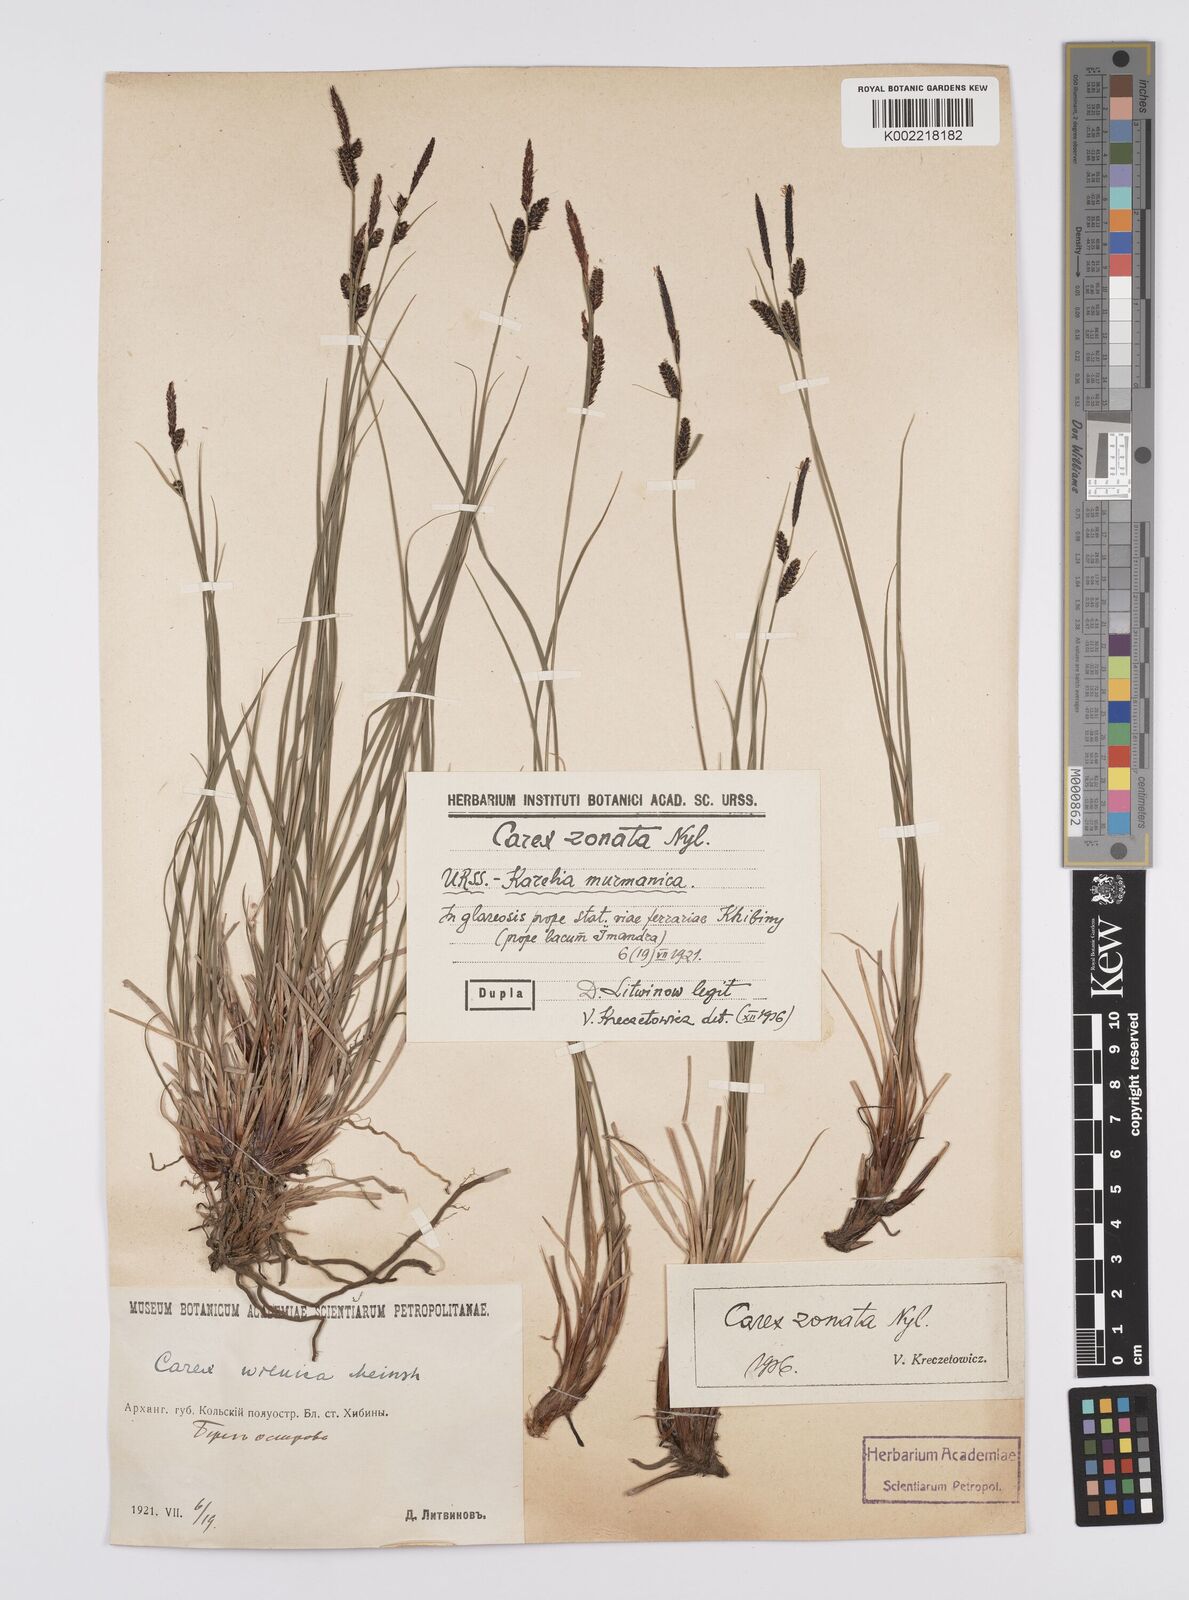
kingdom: Plantae
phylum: Tracheophyta
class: Liliopsida
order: Poales
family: Cyperaceae
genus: Carex
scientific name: Carex nigra
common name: Common sedge
